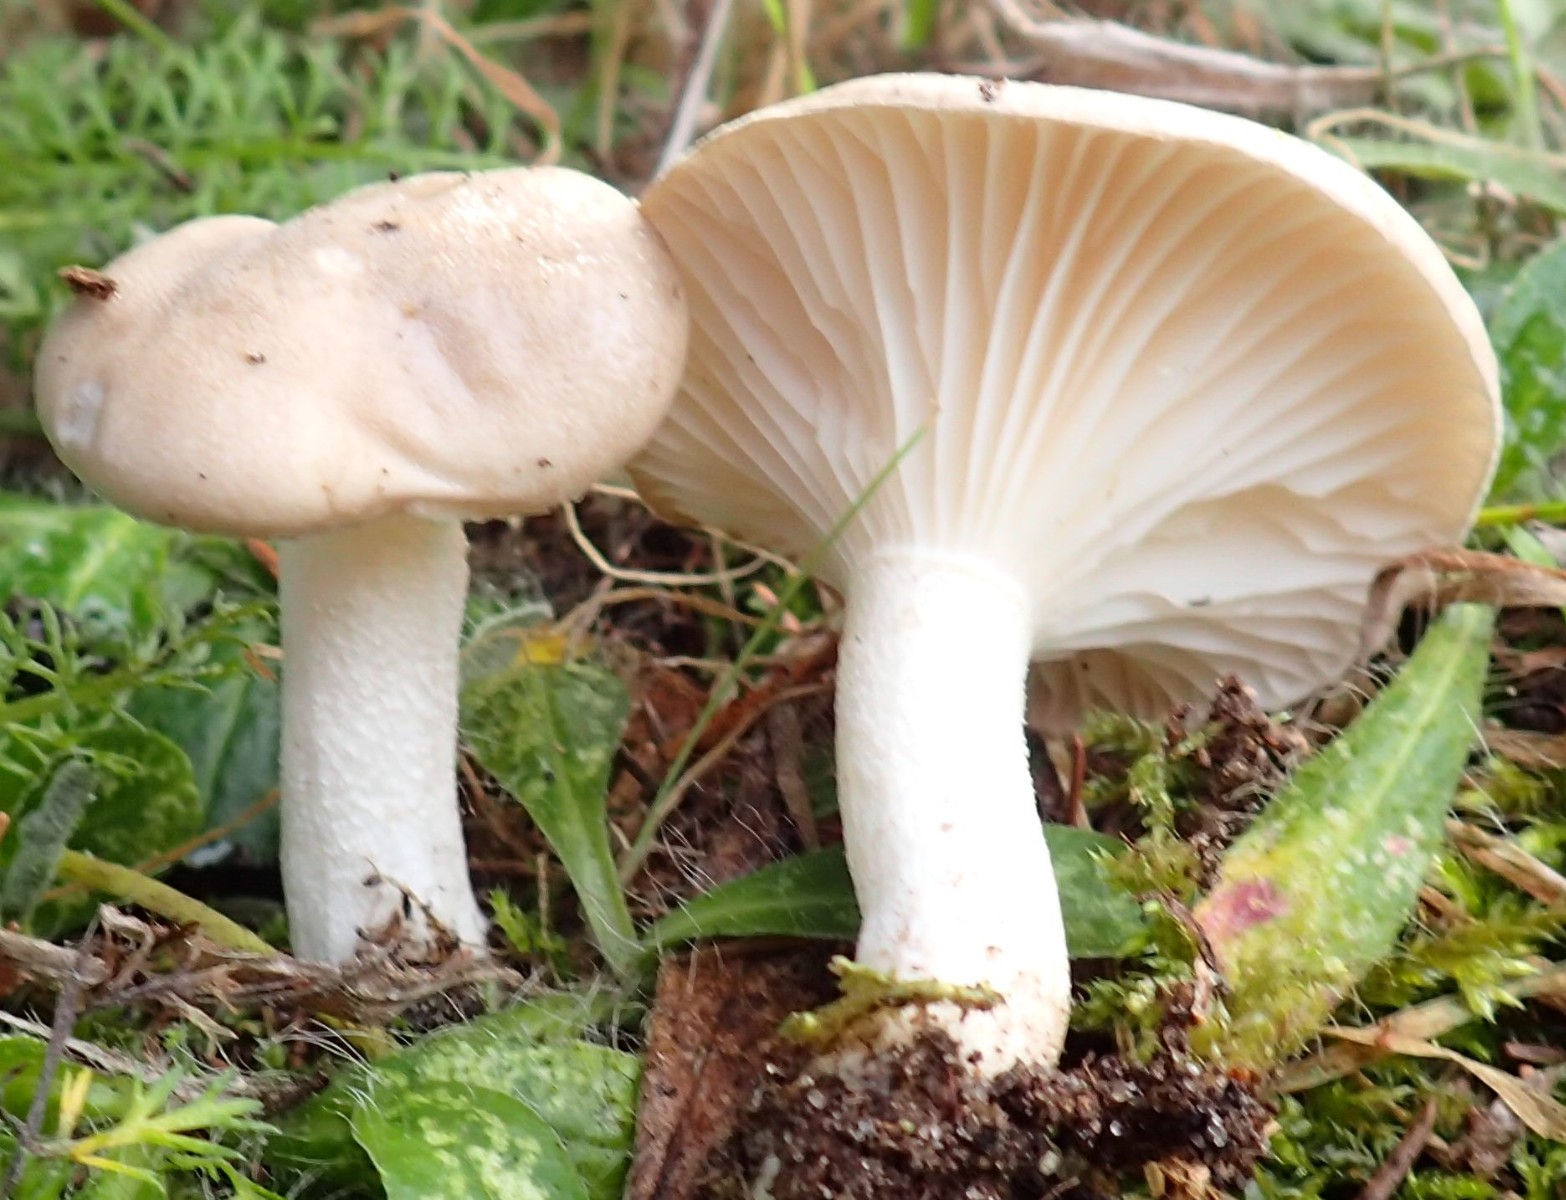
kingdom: Fungi
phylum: Basidiomycota
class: Agaricomycetes
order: Agaricales
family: Hygrophoraceae
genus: Hygrophorus
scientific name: Hygrophorus agathosmus
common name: vellugtende sneglehat
